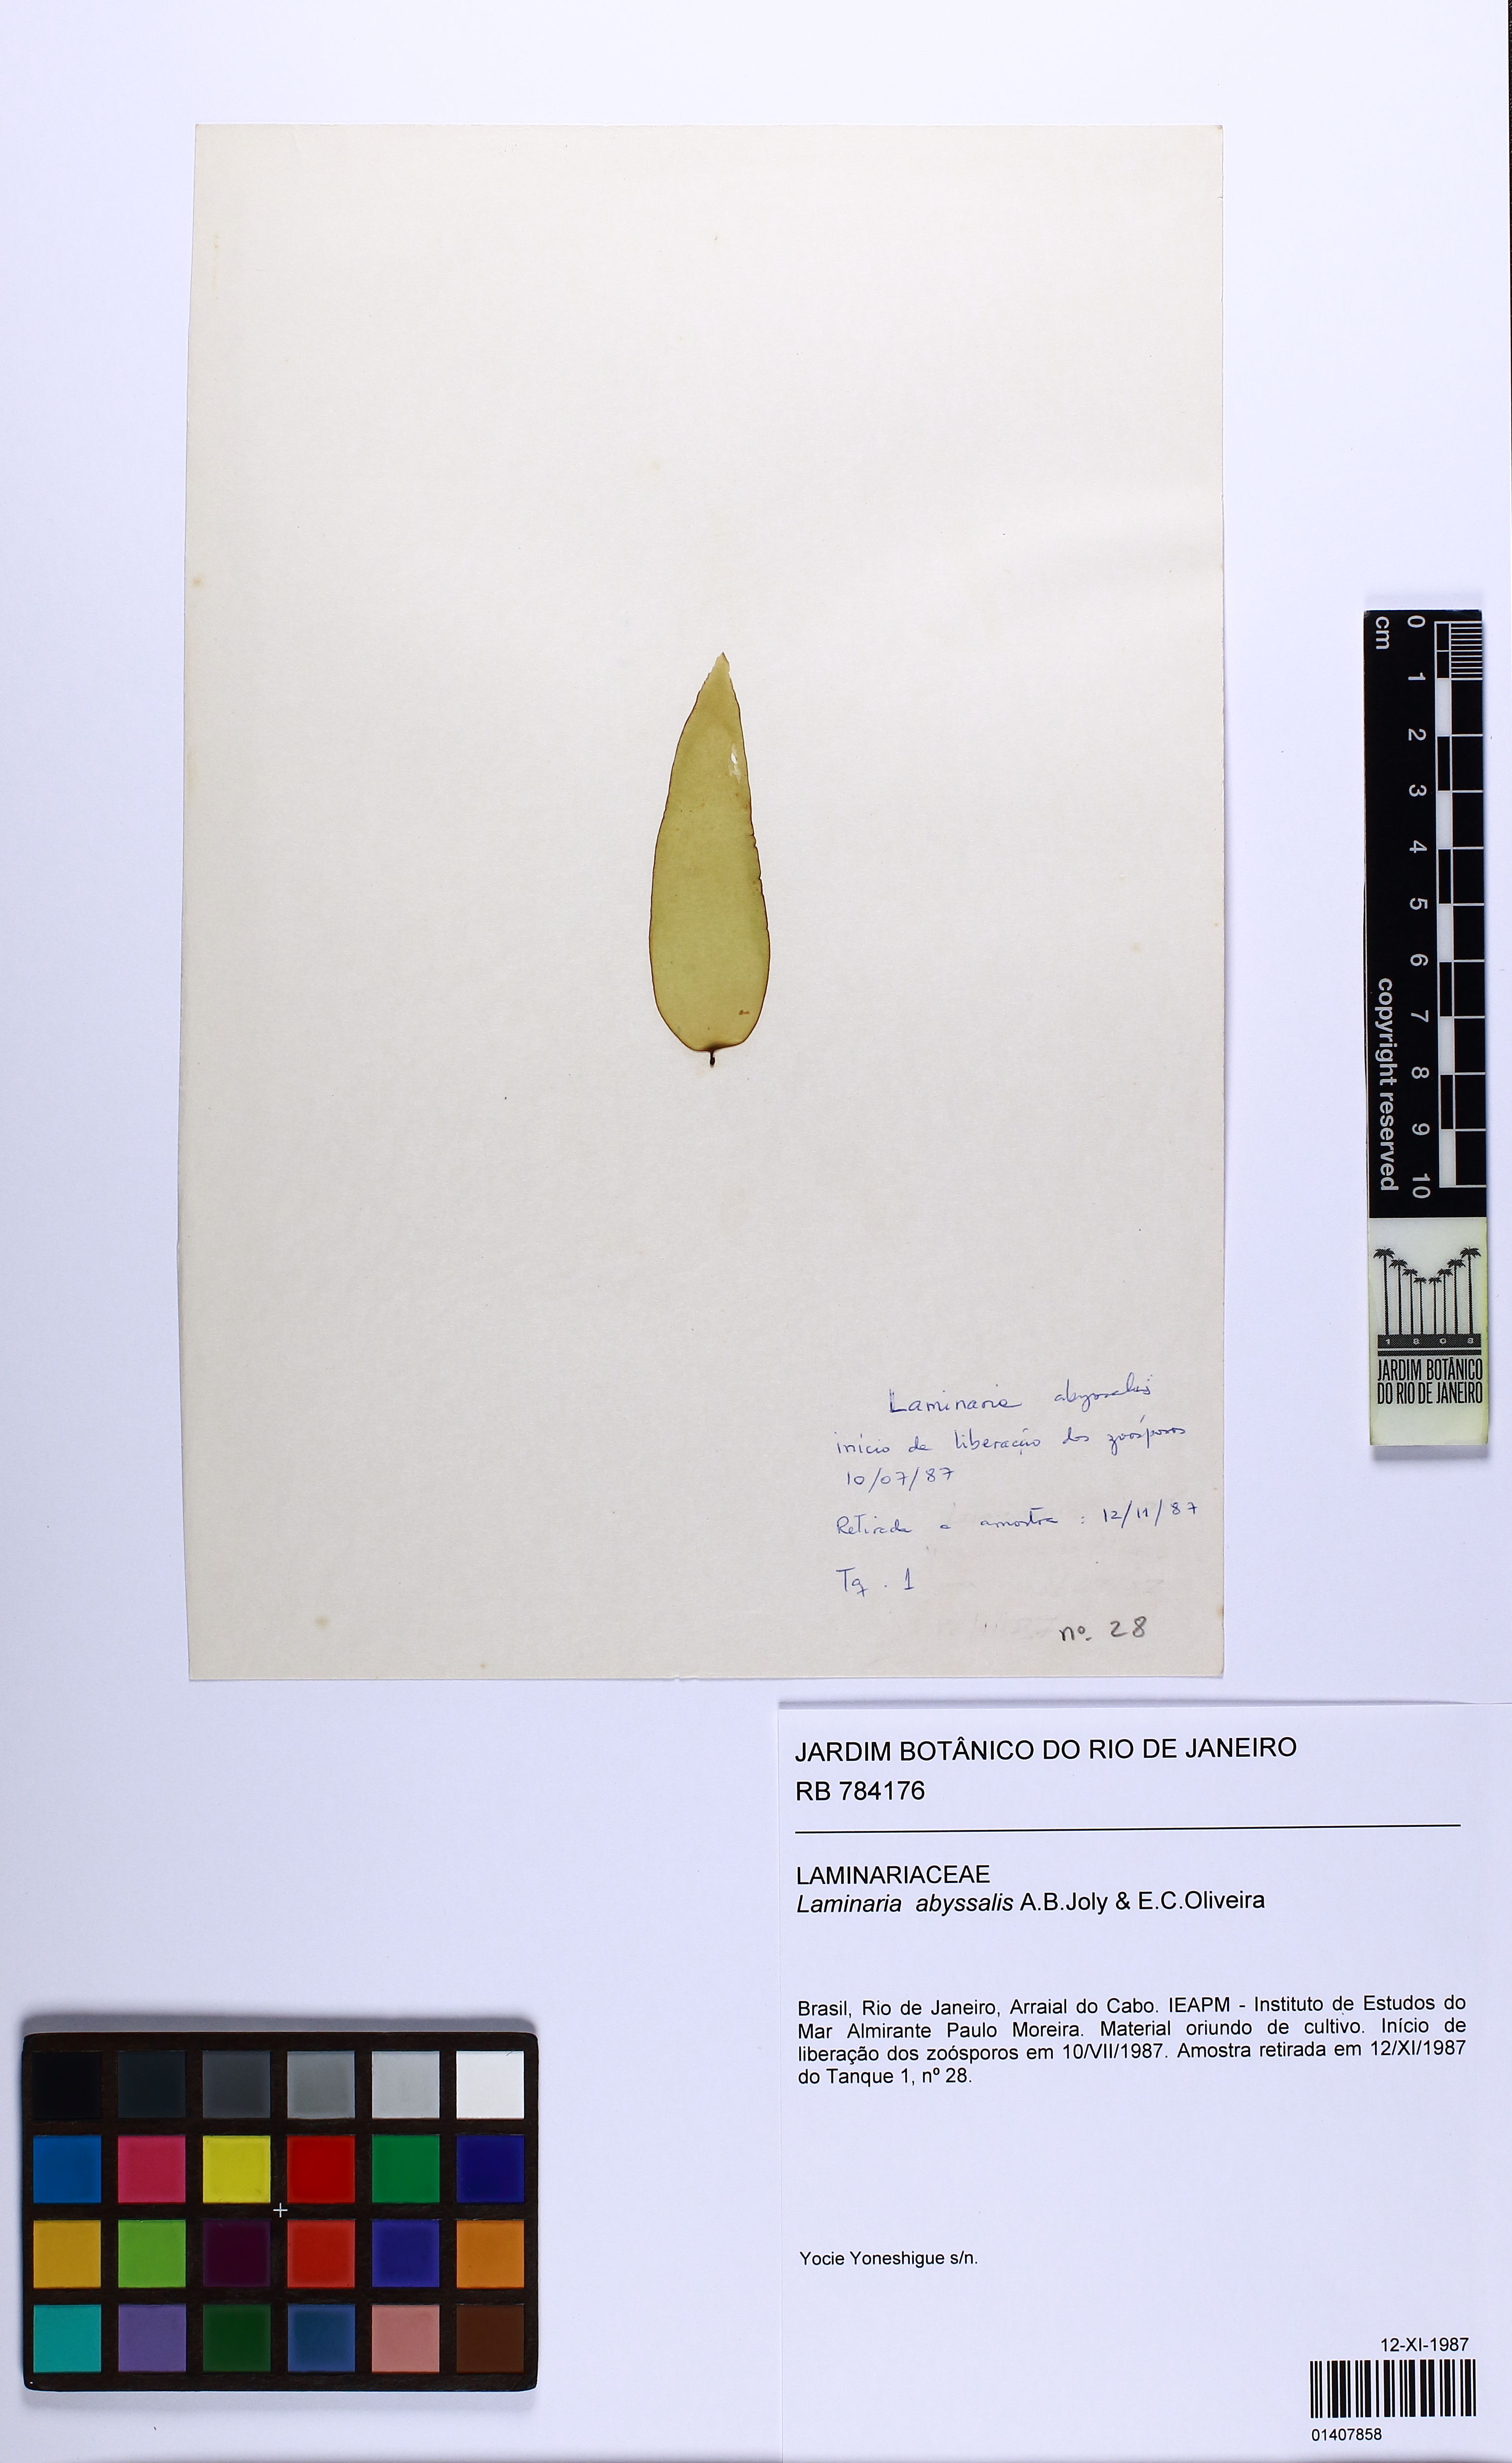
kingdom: Chromista
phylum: Ochrophyta
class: Phaeophyceae
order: Laminariales
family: Laminariaceae
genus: Laminaria
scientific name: Laminaria abyssalis
